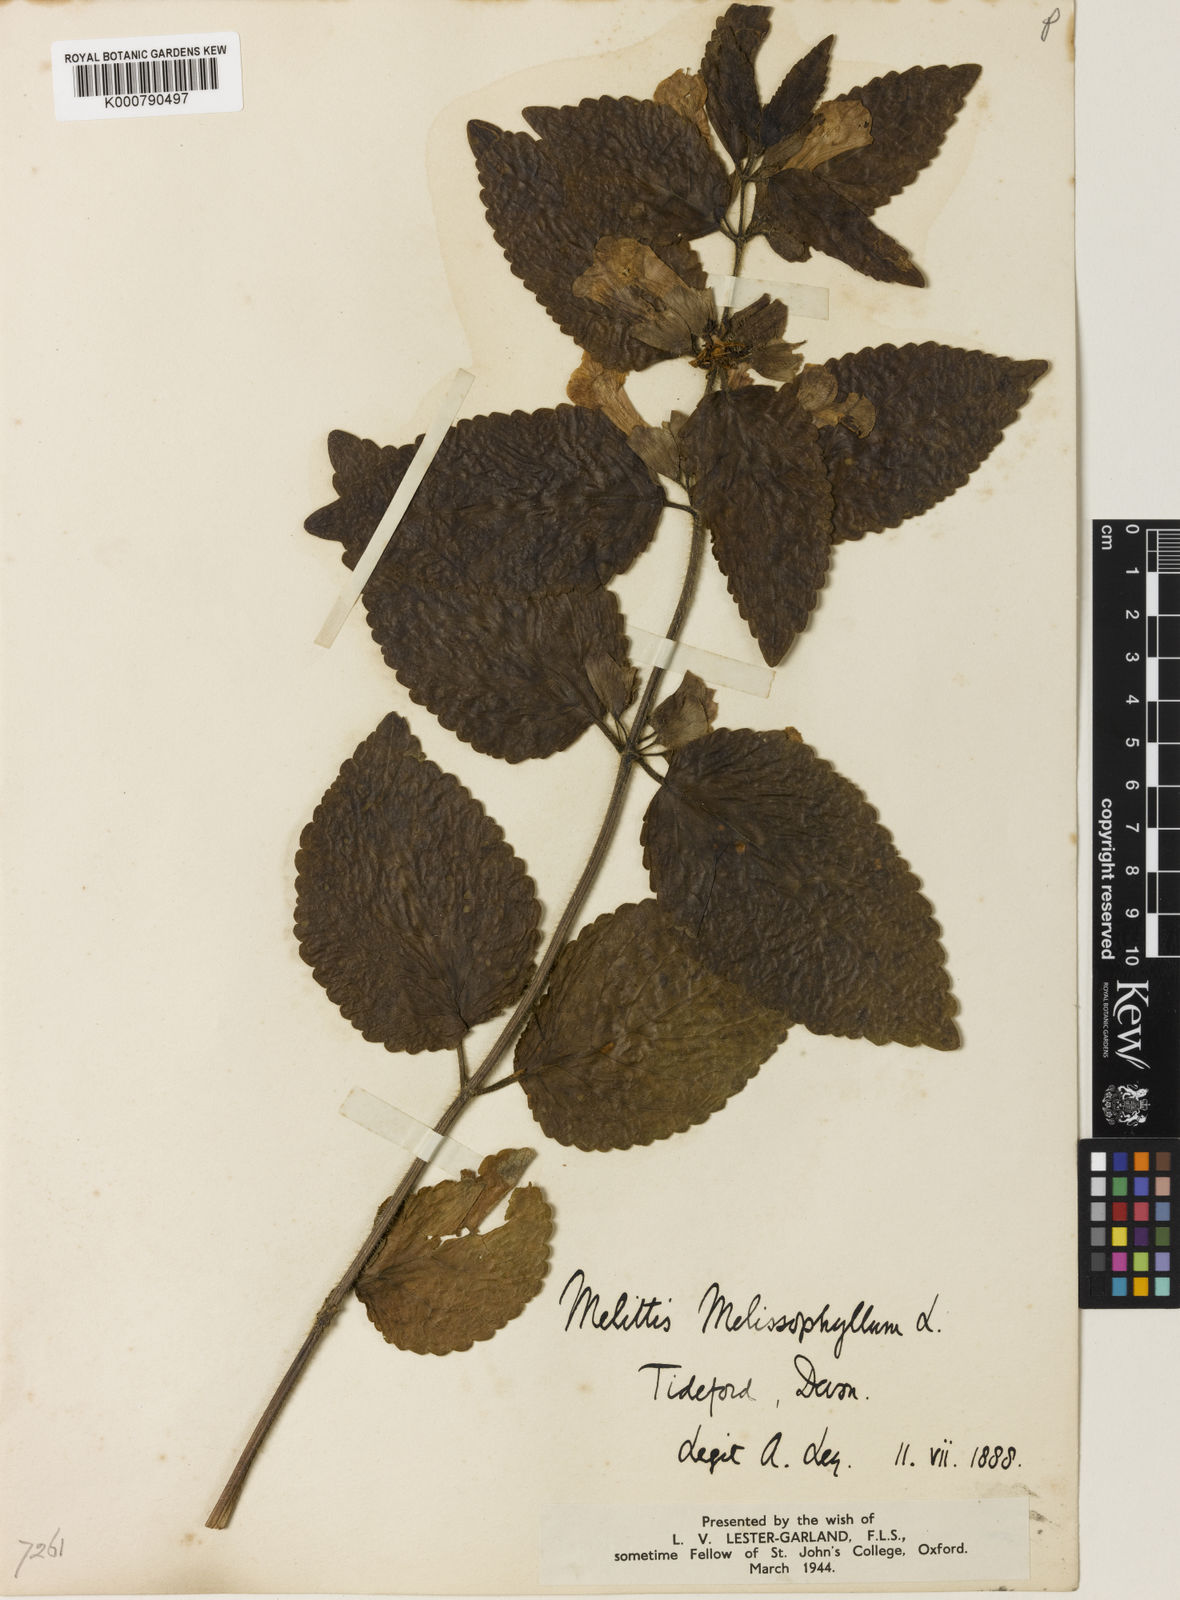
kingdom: Plantae
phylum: Tracheophyta
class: Magnoliopsida
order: Lamiales
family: Lamiaceae
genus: Melittis
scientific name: Melittis melissophyllum
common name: Bastard balm
